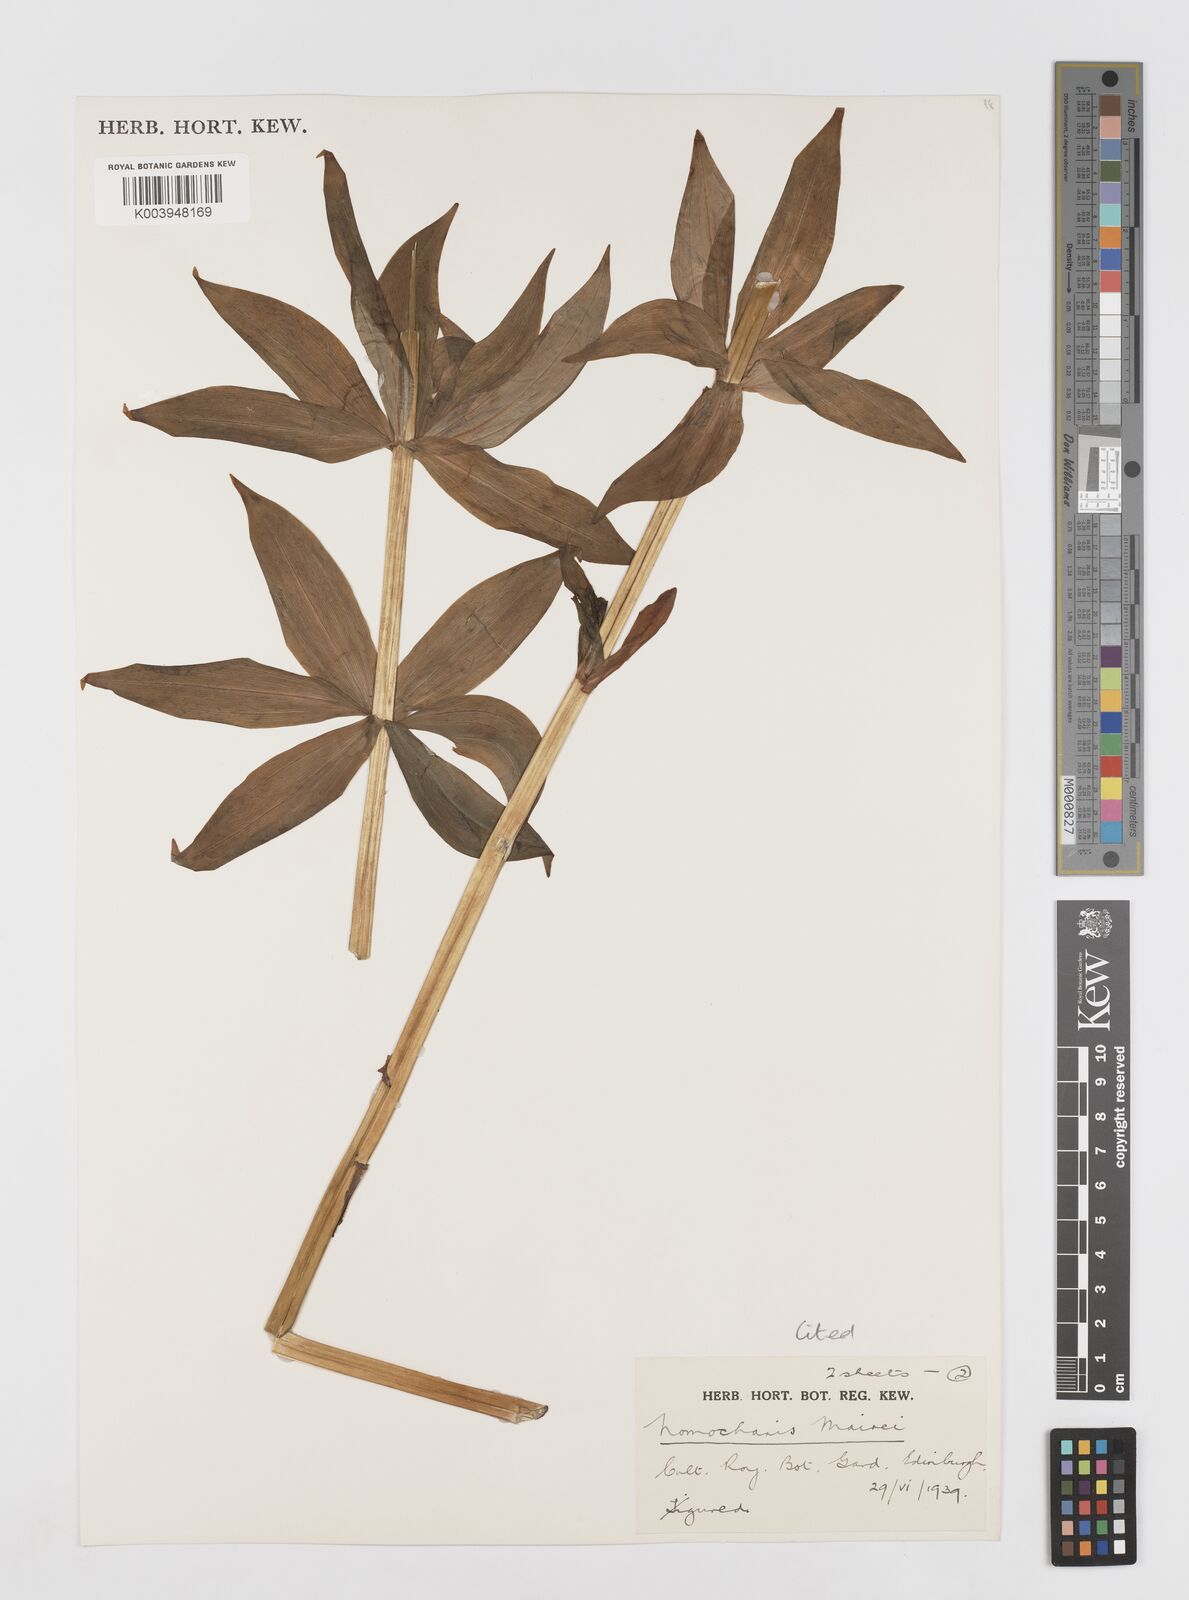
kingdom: Plantae
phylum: Tracheophyta
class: Liliopsida
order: Liliales
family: Liliaceae
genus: Lilium
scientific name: Lilium pardanthinum
